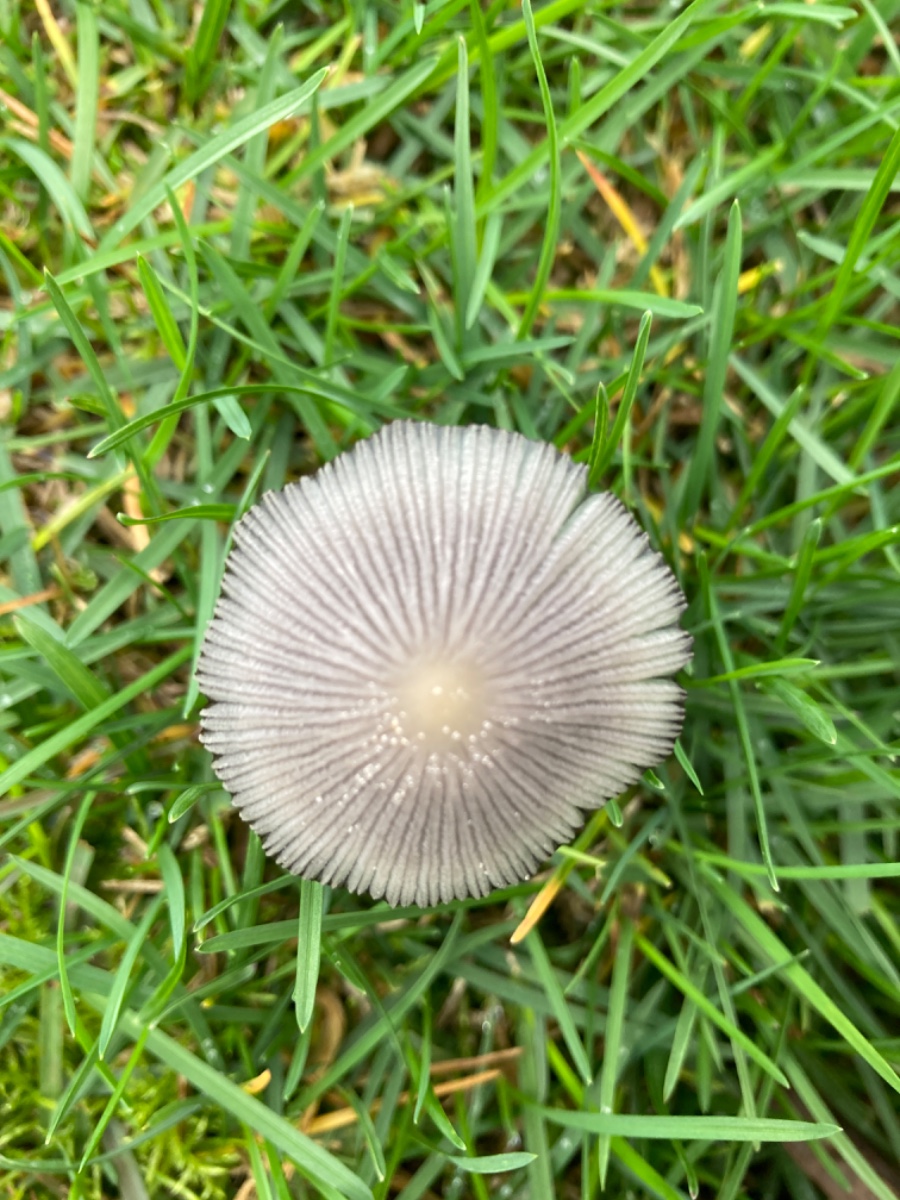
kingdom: Fungi
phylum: Basidiomycota
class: Agaricomycetes
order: Agaricales
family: Psathyrellaceae
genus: Coprinellus
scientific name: Coprinellus
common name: blækhat
